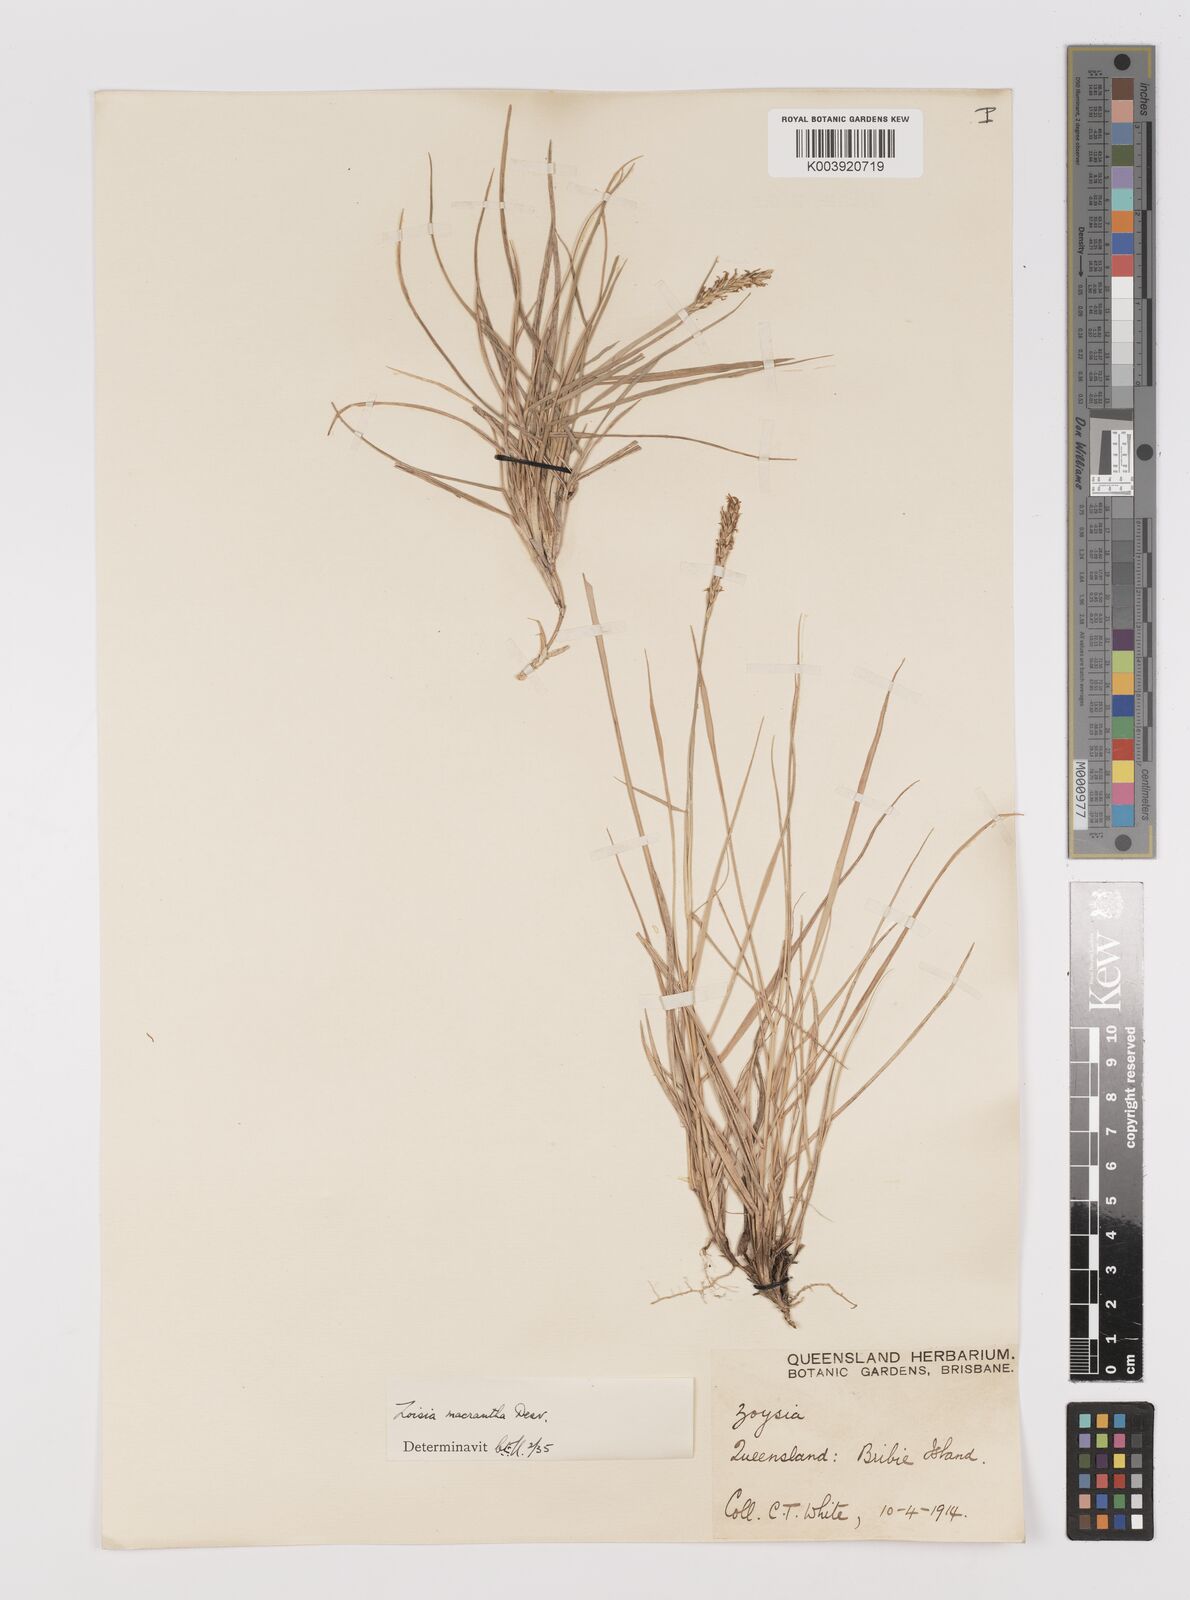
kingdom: Plantae
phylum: Tracheophyta
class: Liliopsida
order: Poales
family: Poaceae
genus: Zoysia
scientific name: Zoysia macrantha
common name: Korean lawn grass
